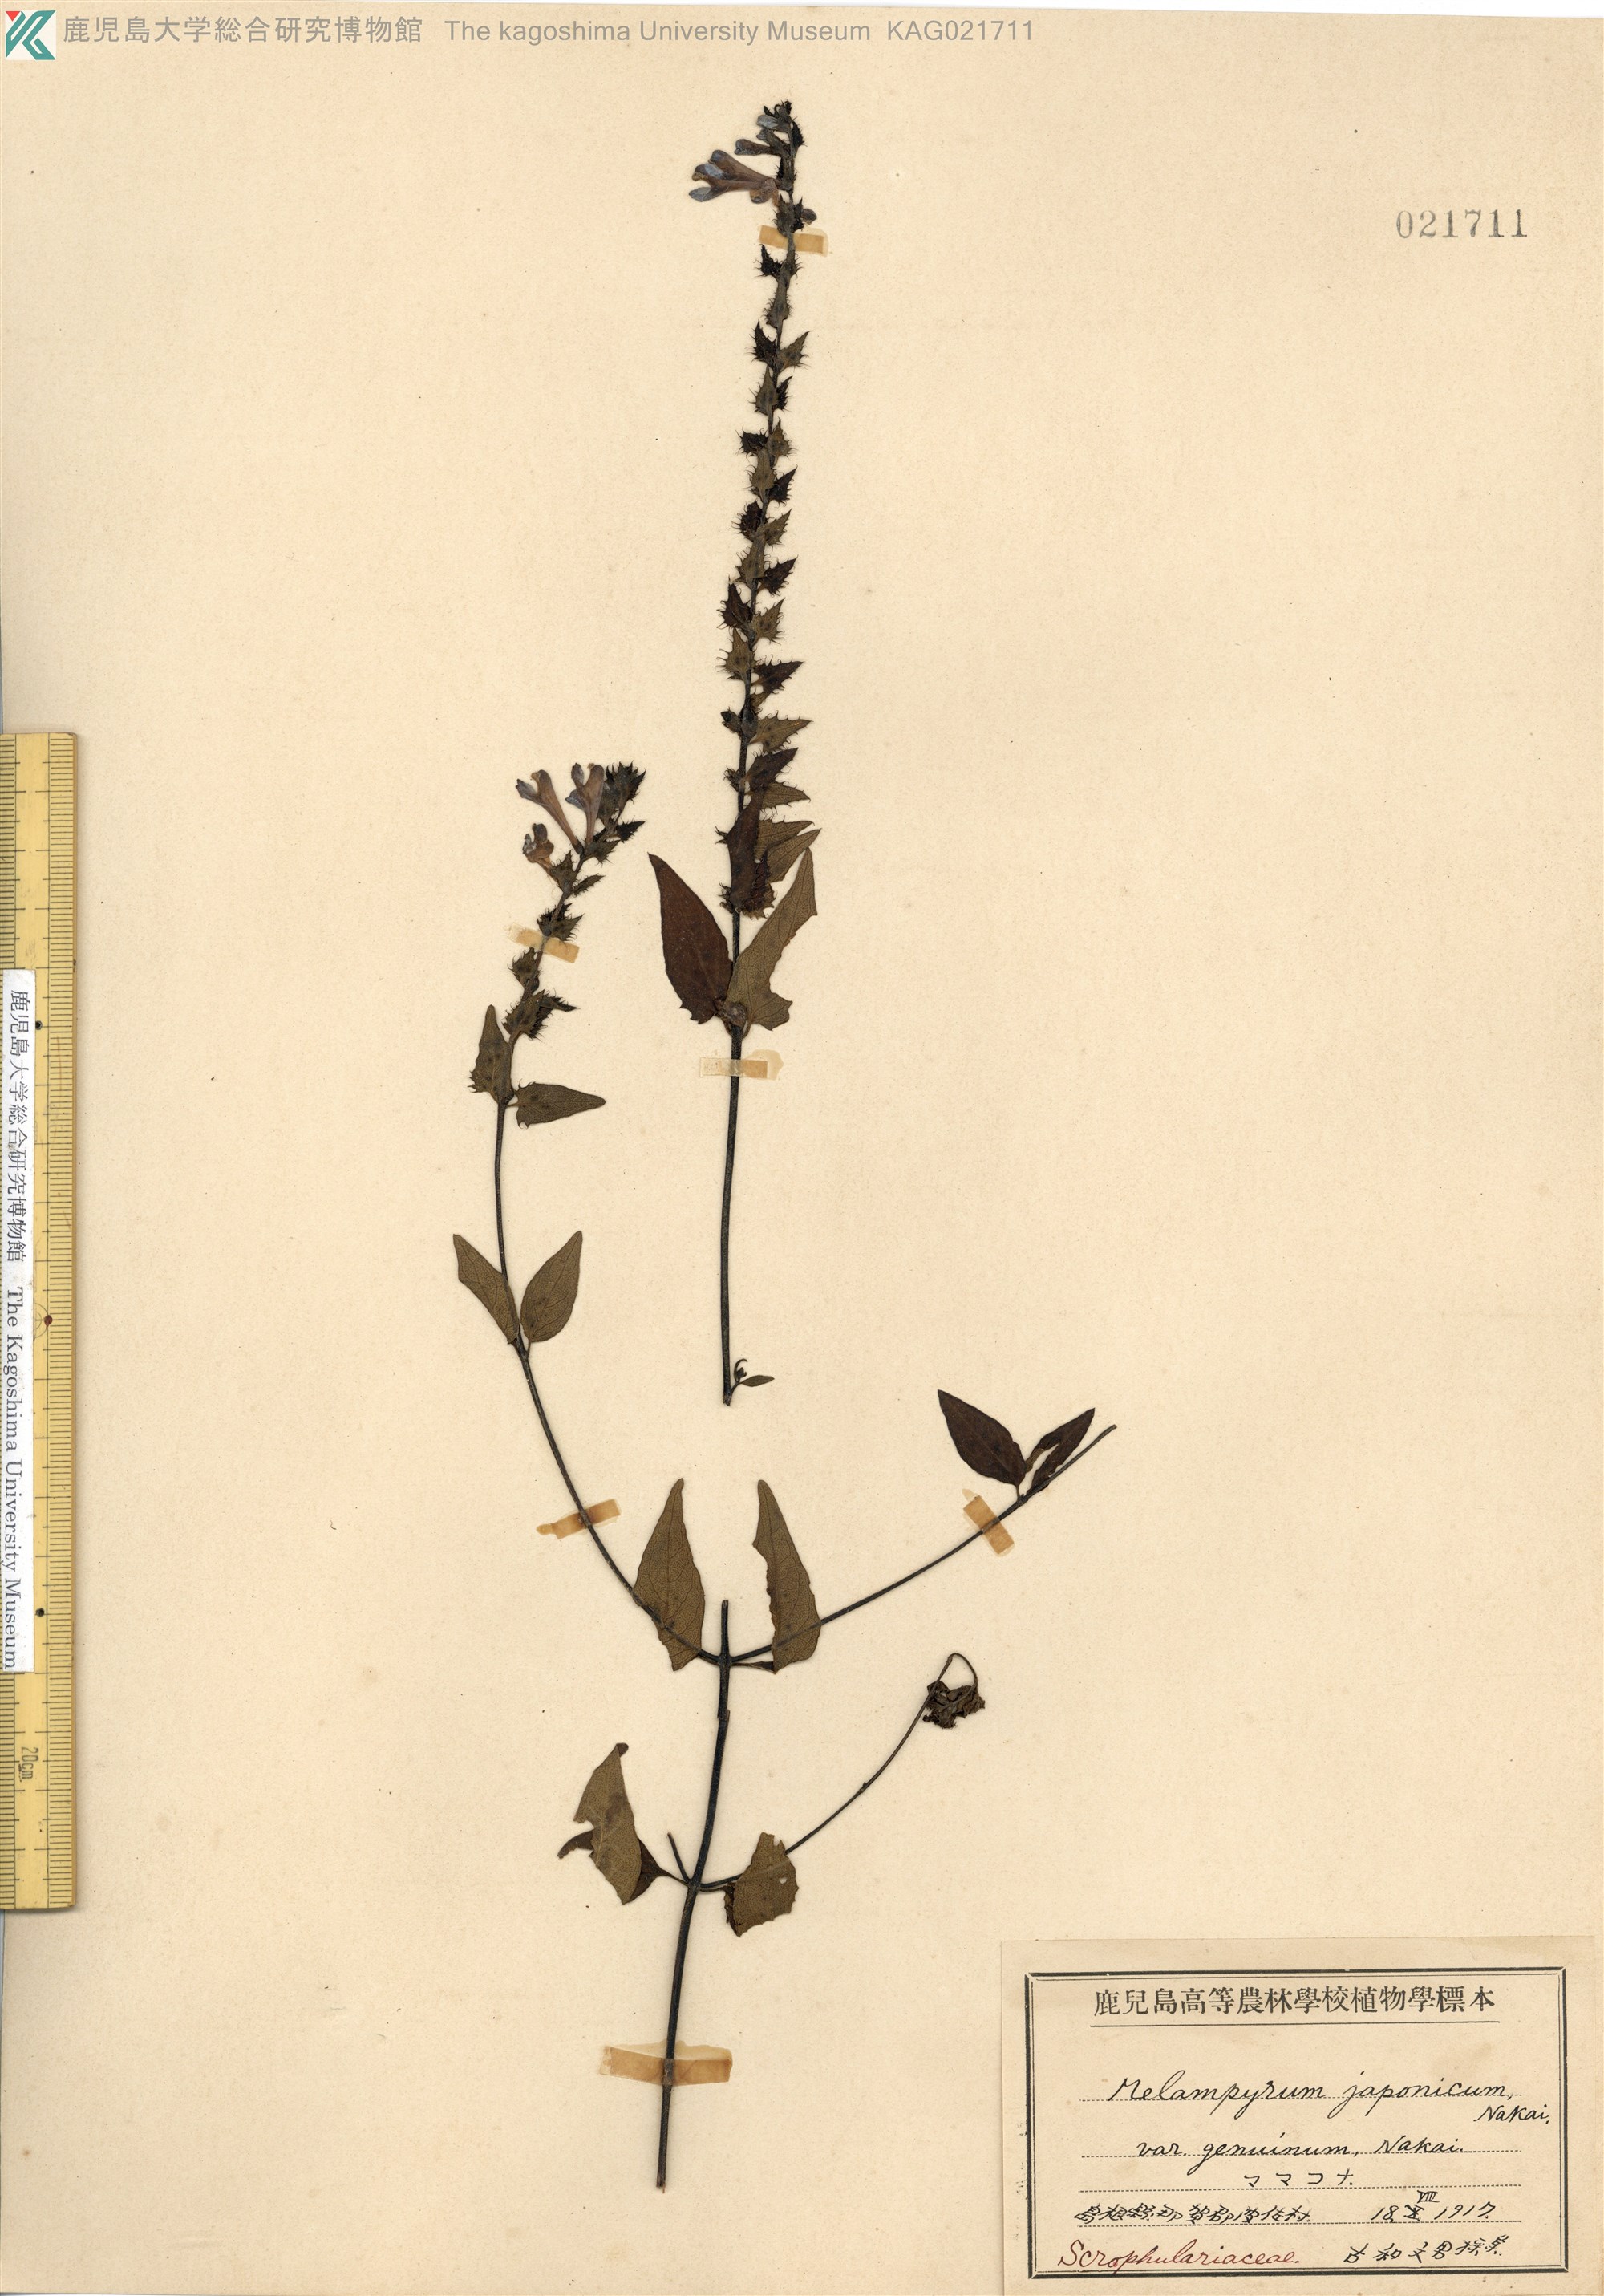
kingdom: Plantae
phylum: Tracheophyta
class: Magnoliopsida
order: Lamiales
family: Orobanchaceae
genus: Melampyrum
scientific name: Melampyrum roseum
